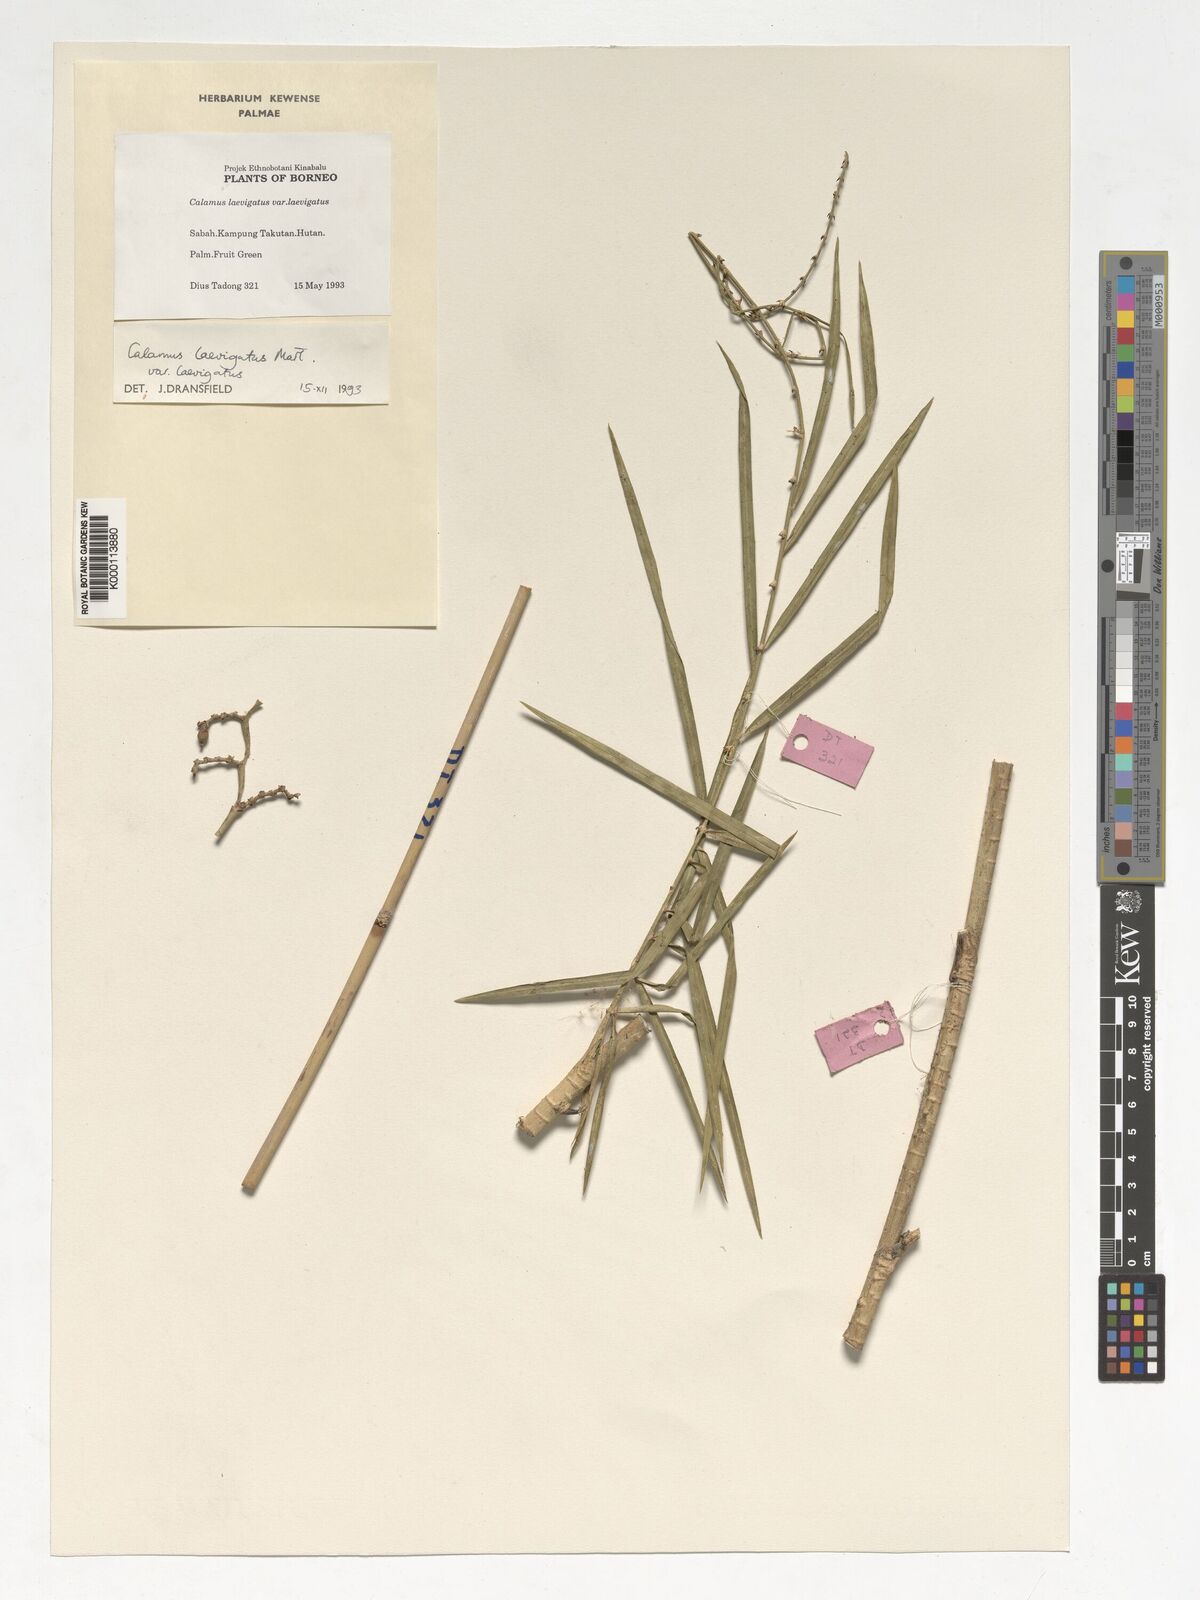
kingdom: Plantae
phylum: Tracheophyta
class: Liliopsida
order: Arecales
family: Arecaceae
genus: Calamus
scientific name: Calamus
